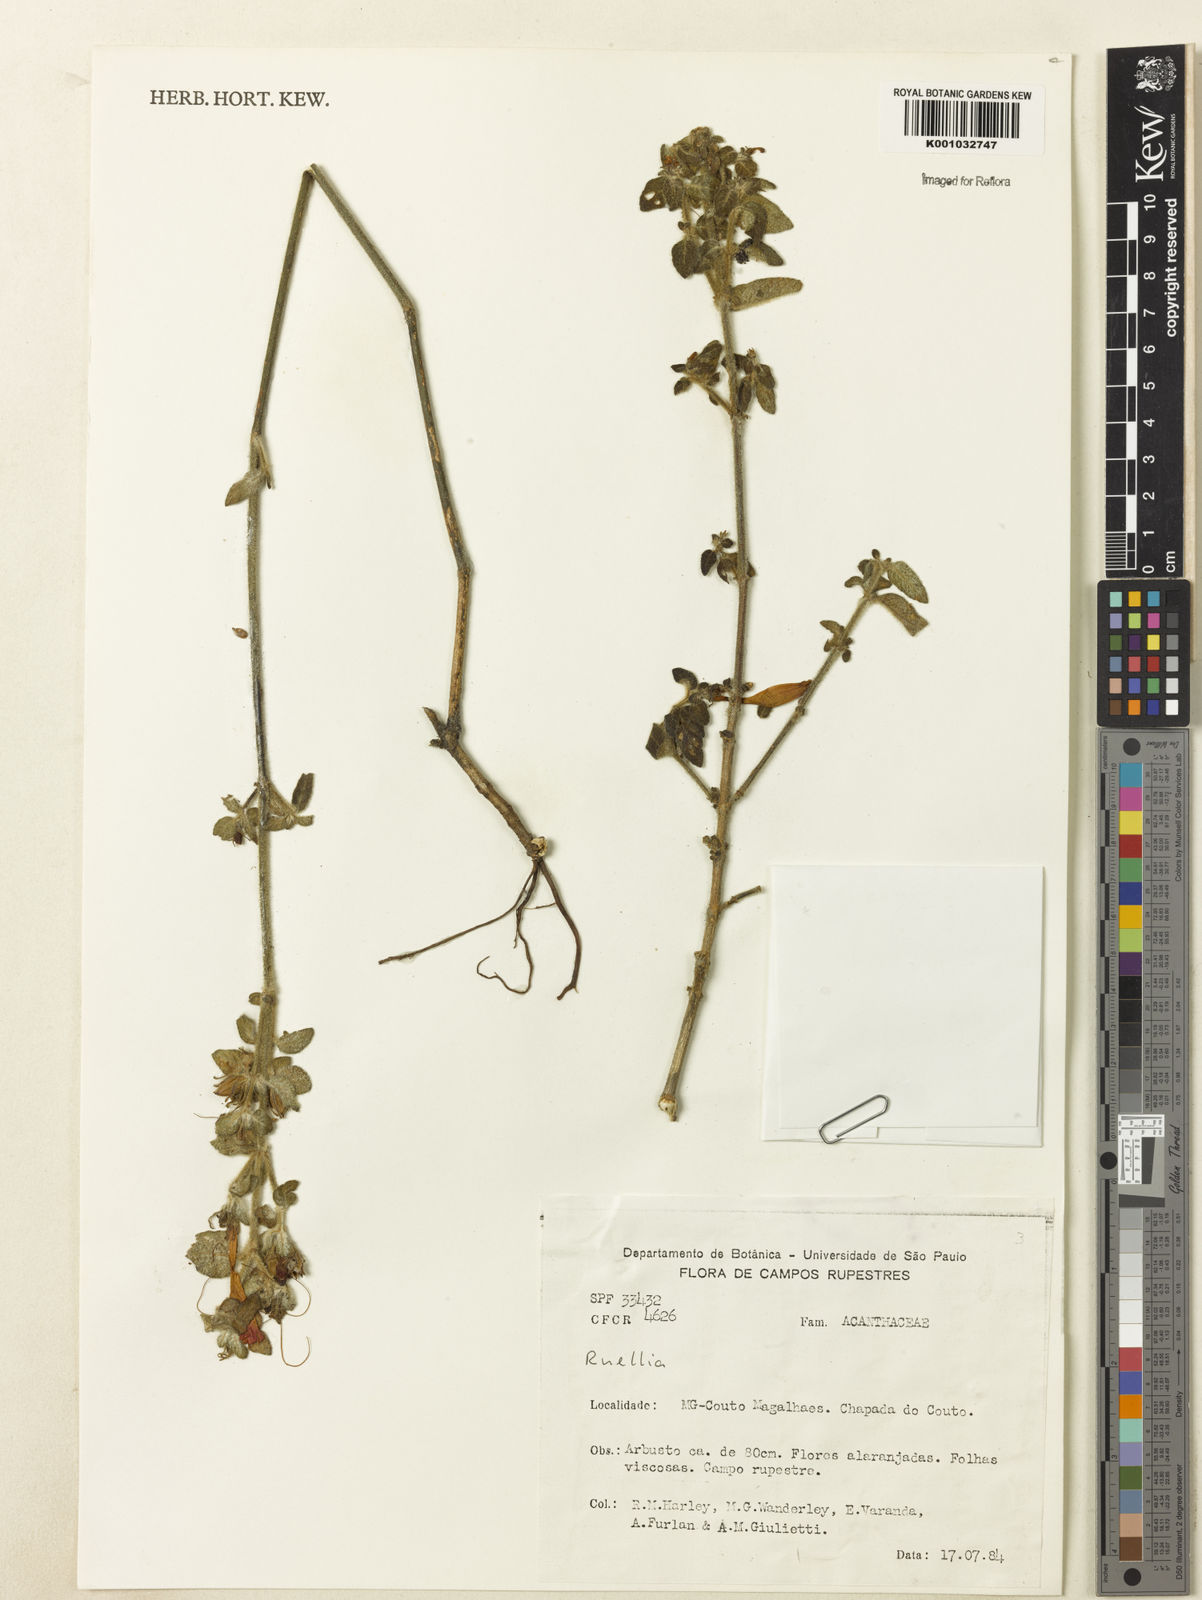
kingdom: Plantae
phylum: Tracheophyta
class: Magnoliopsida
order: Lamiales
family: Acanthaceae
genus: Ruellia
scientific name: Ruellia
